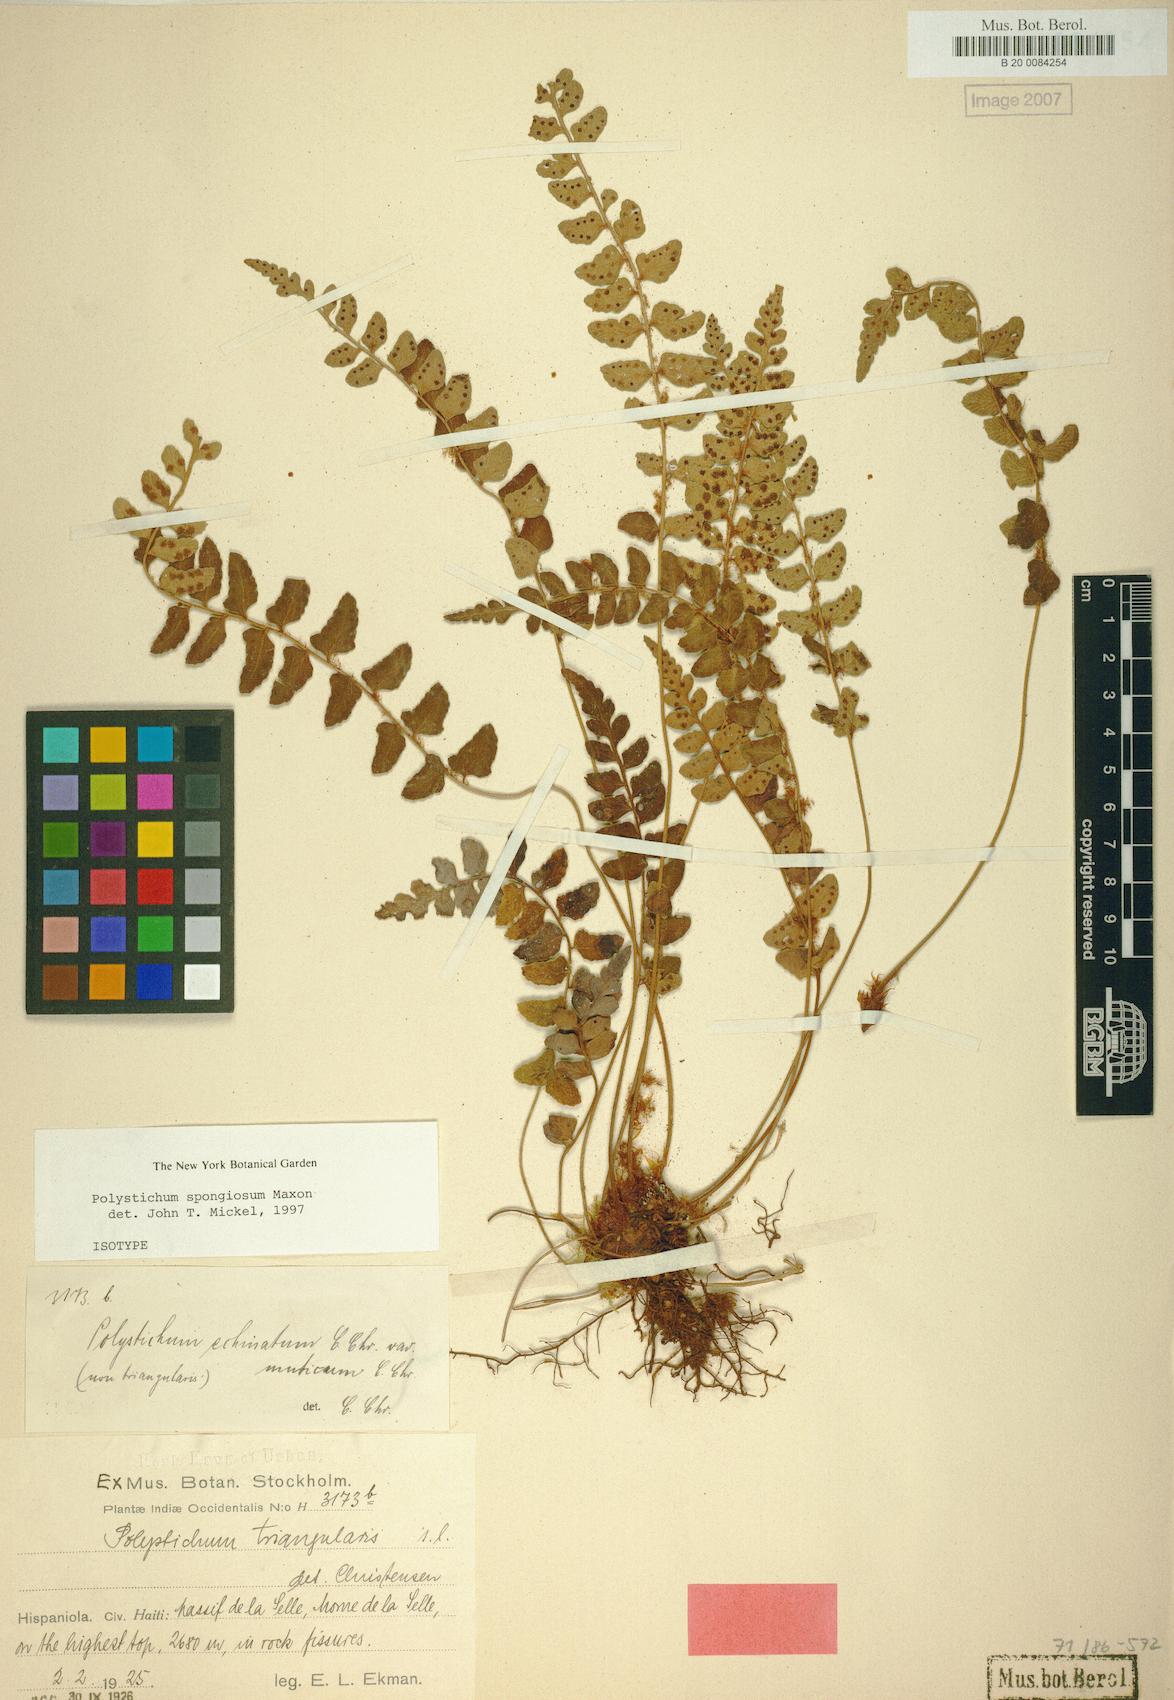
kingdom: Plantae
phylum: Tracheophyta
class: Polypodiopsida
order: Polypodiales
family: Dryopteridaceae
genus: Polystichum
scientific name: Polystichum spongiosum
